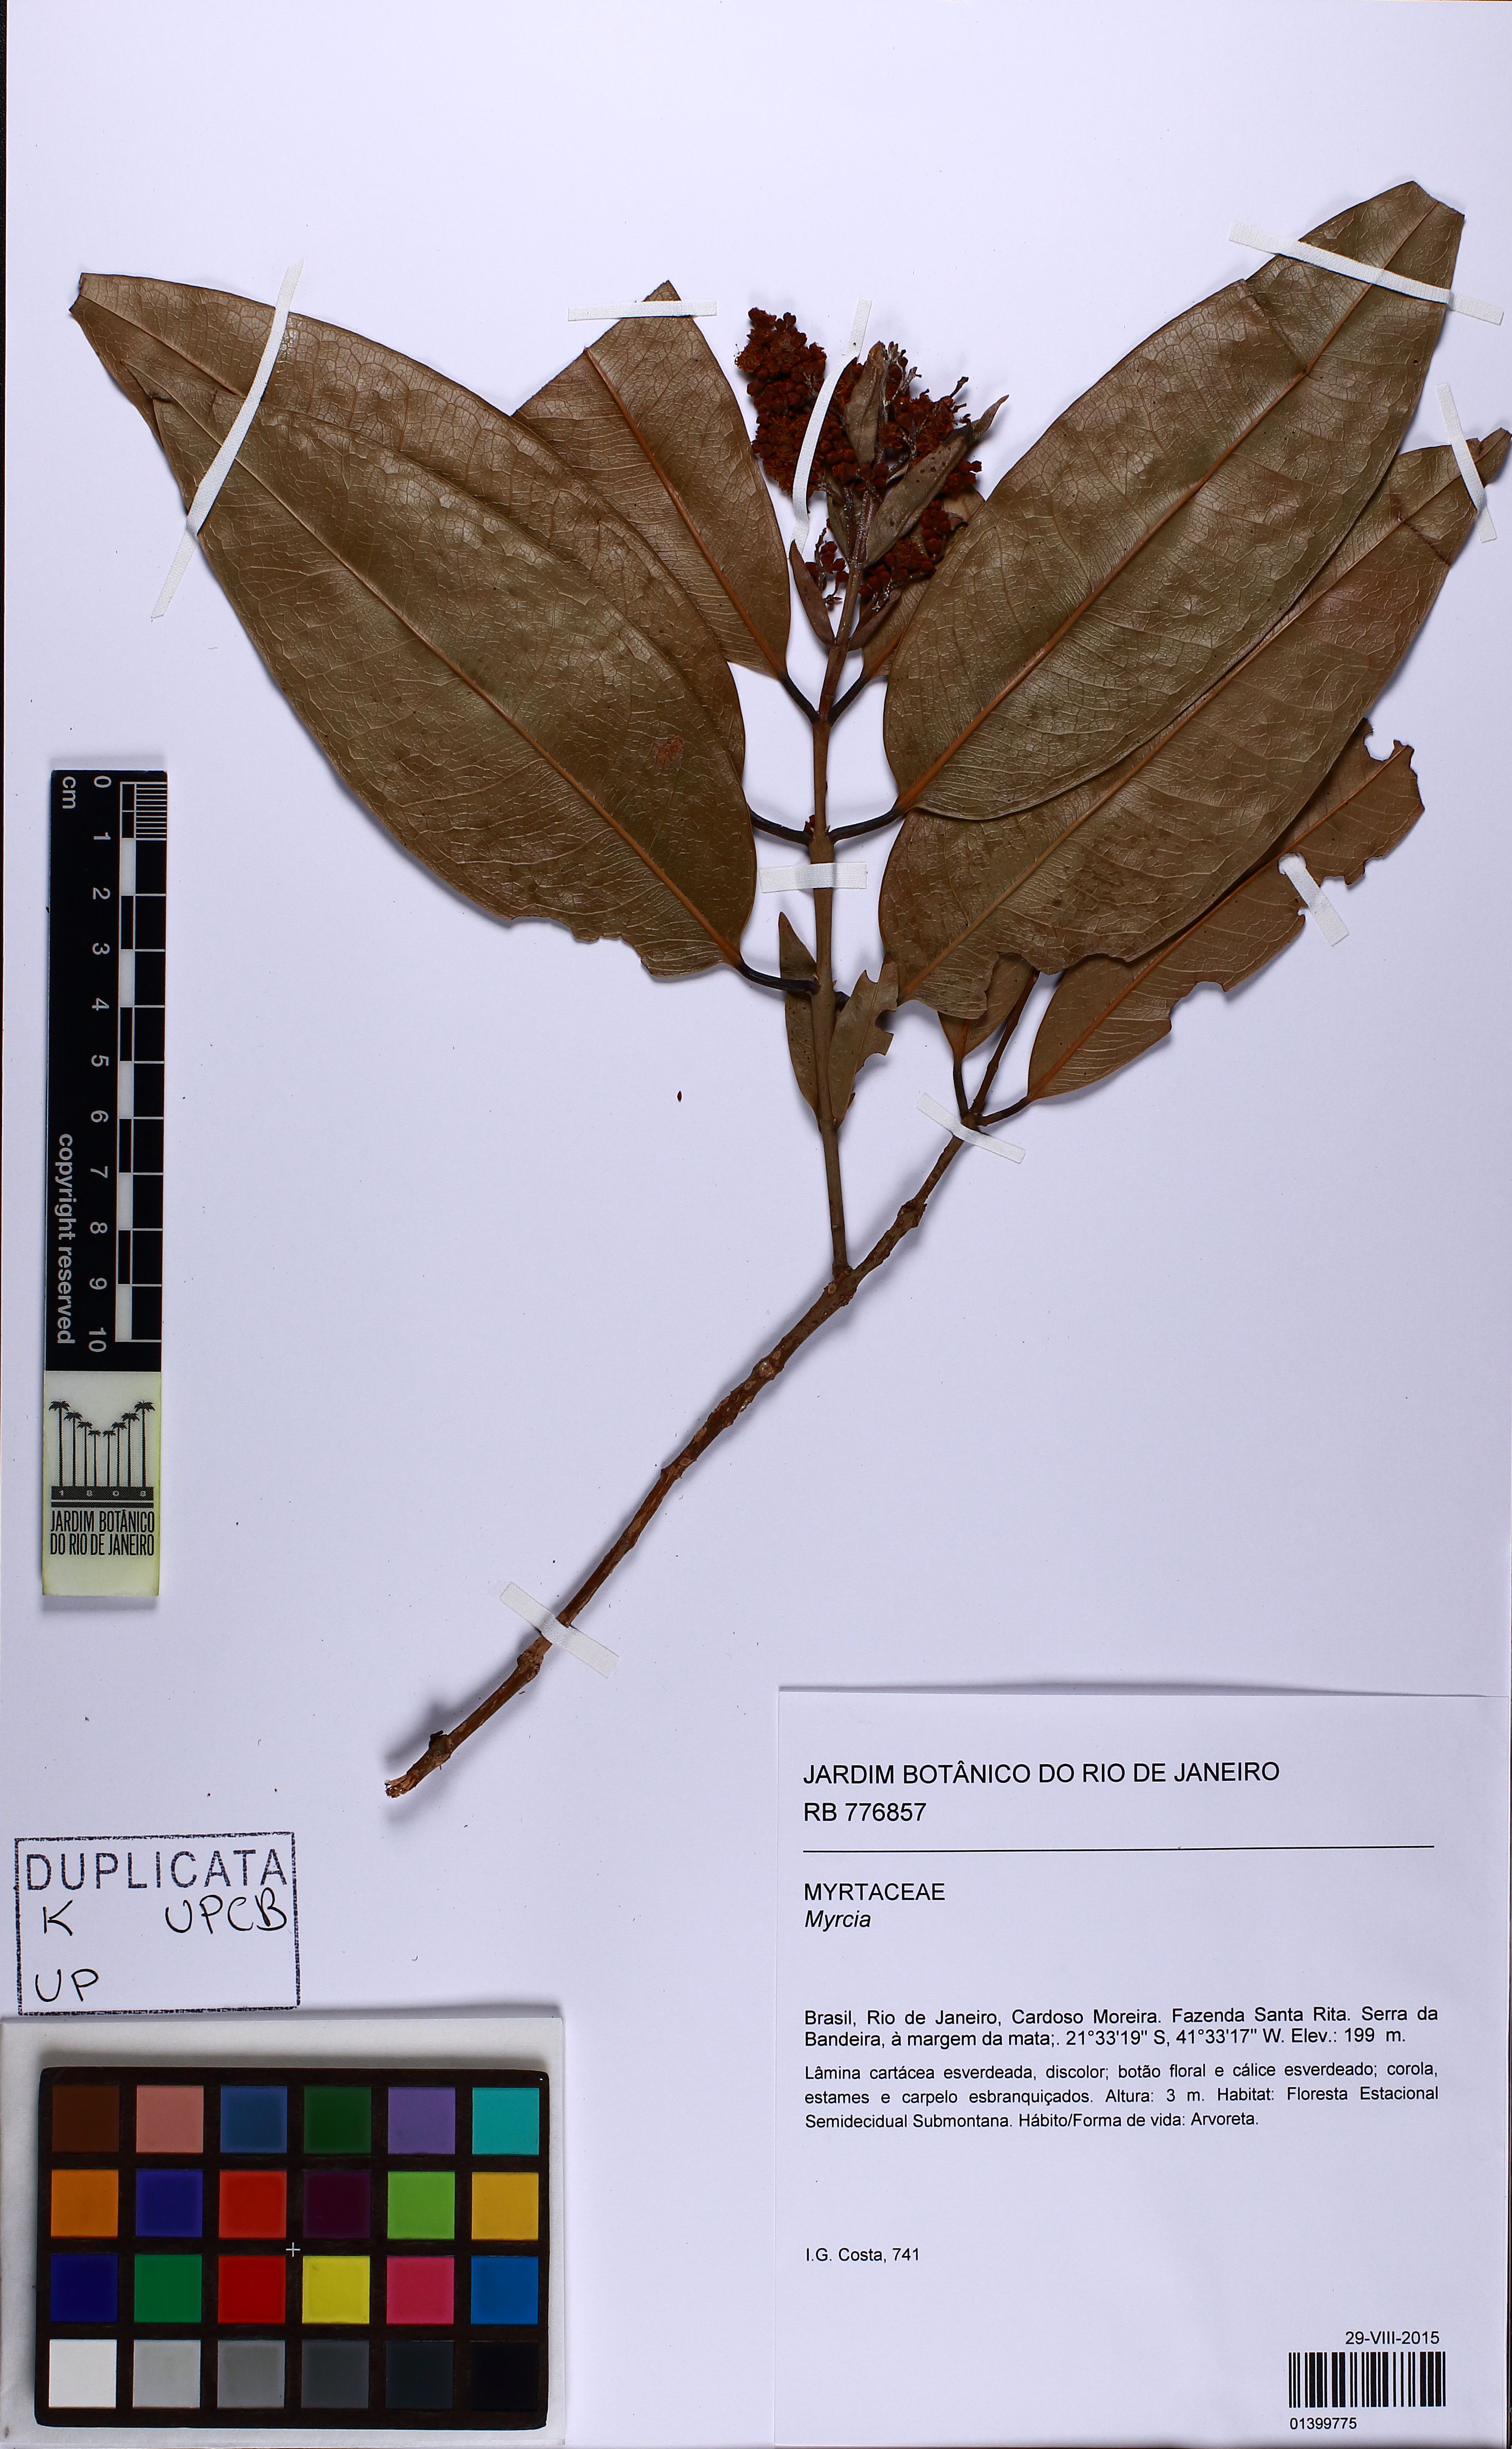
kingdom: Plantae
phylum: Tracheophyta
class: Magnoliopsida
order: Malpighiales
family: Hypericaceae
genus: Vismia
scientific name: Vismia
